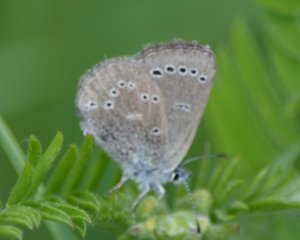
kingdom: Animalia
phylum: Arthropoda
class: Insecta
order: Lepidoptera
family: Lycaenidae
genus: Glaucopsyche
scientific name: Glaucopsyche lygdamus
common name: Silvery Blue
